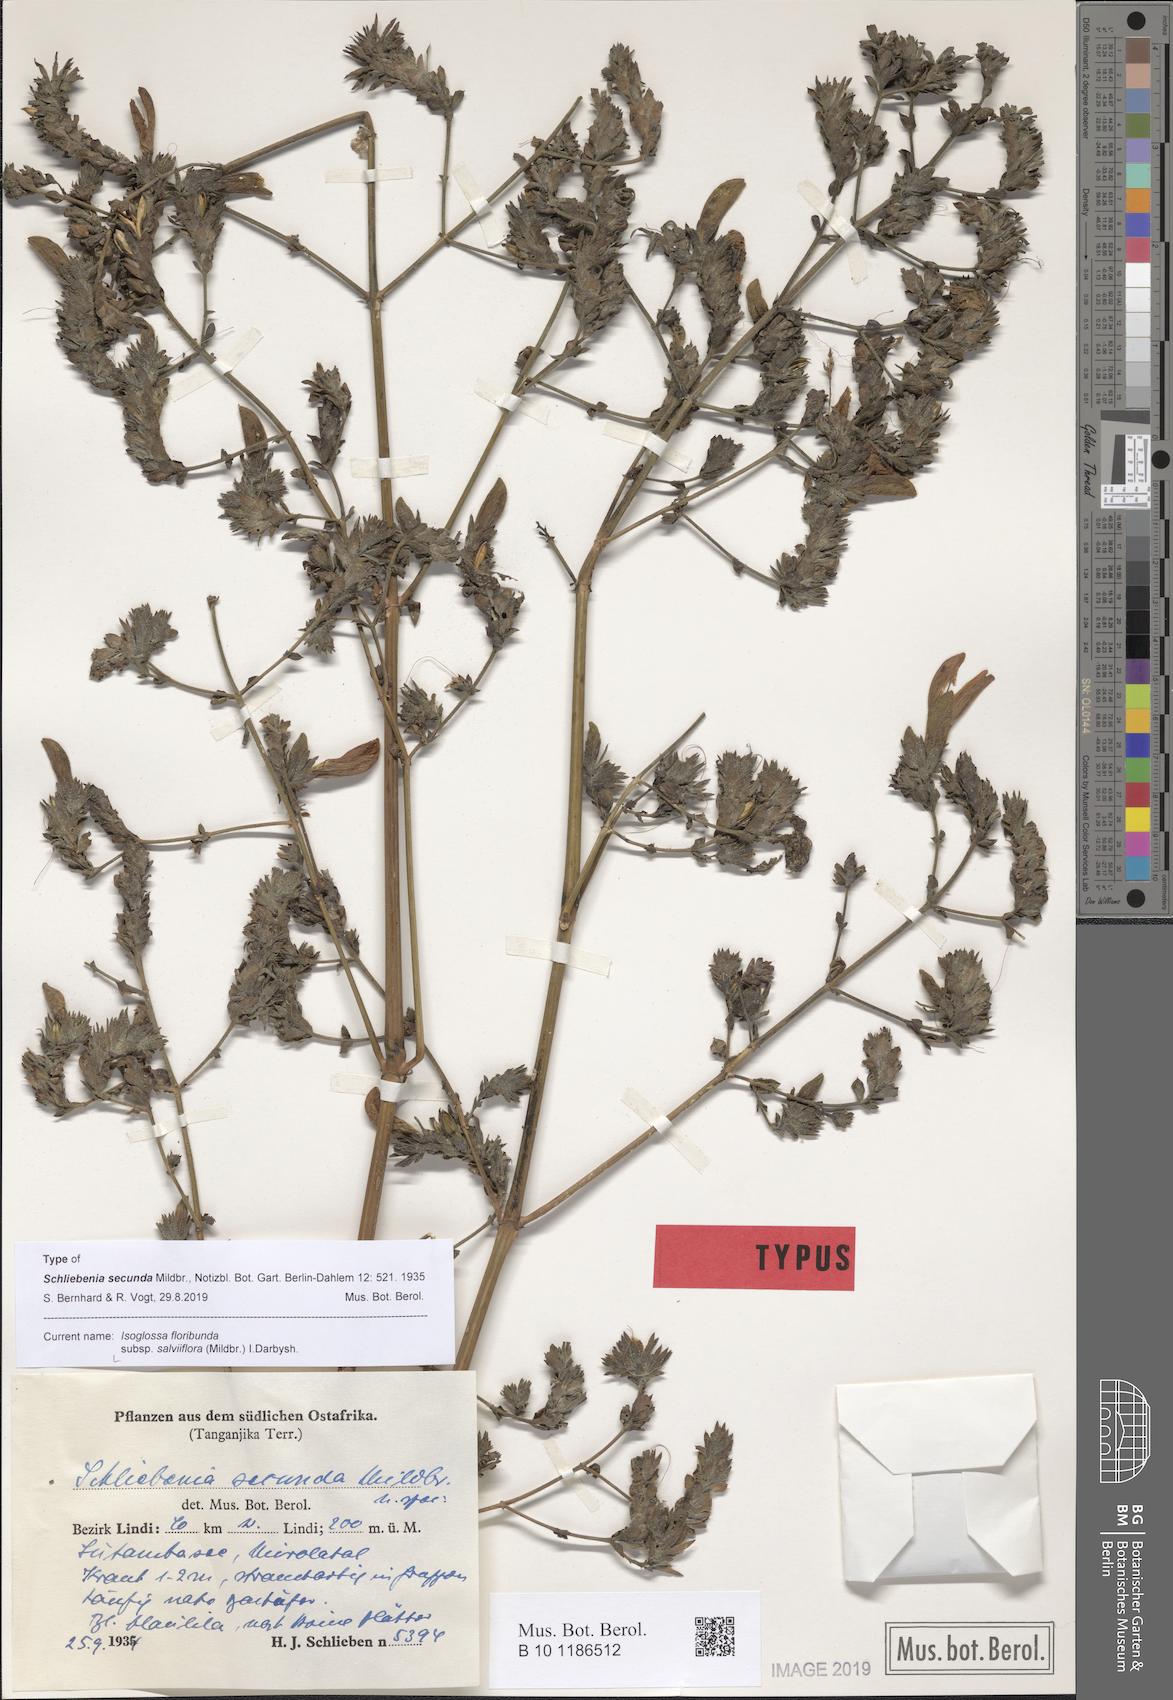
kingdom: Plantae
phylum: Tracheophyta
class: Magnoliopsida
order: Lamiales
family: Acanthaceae
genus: Isoglossa
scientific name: Isoglossa floribunda
